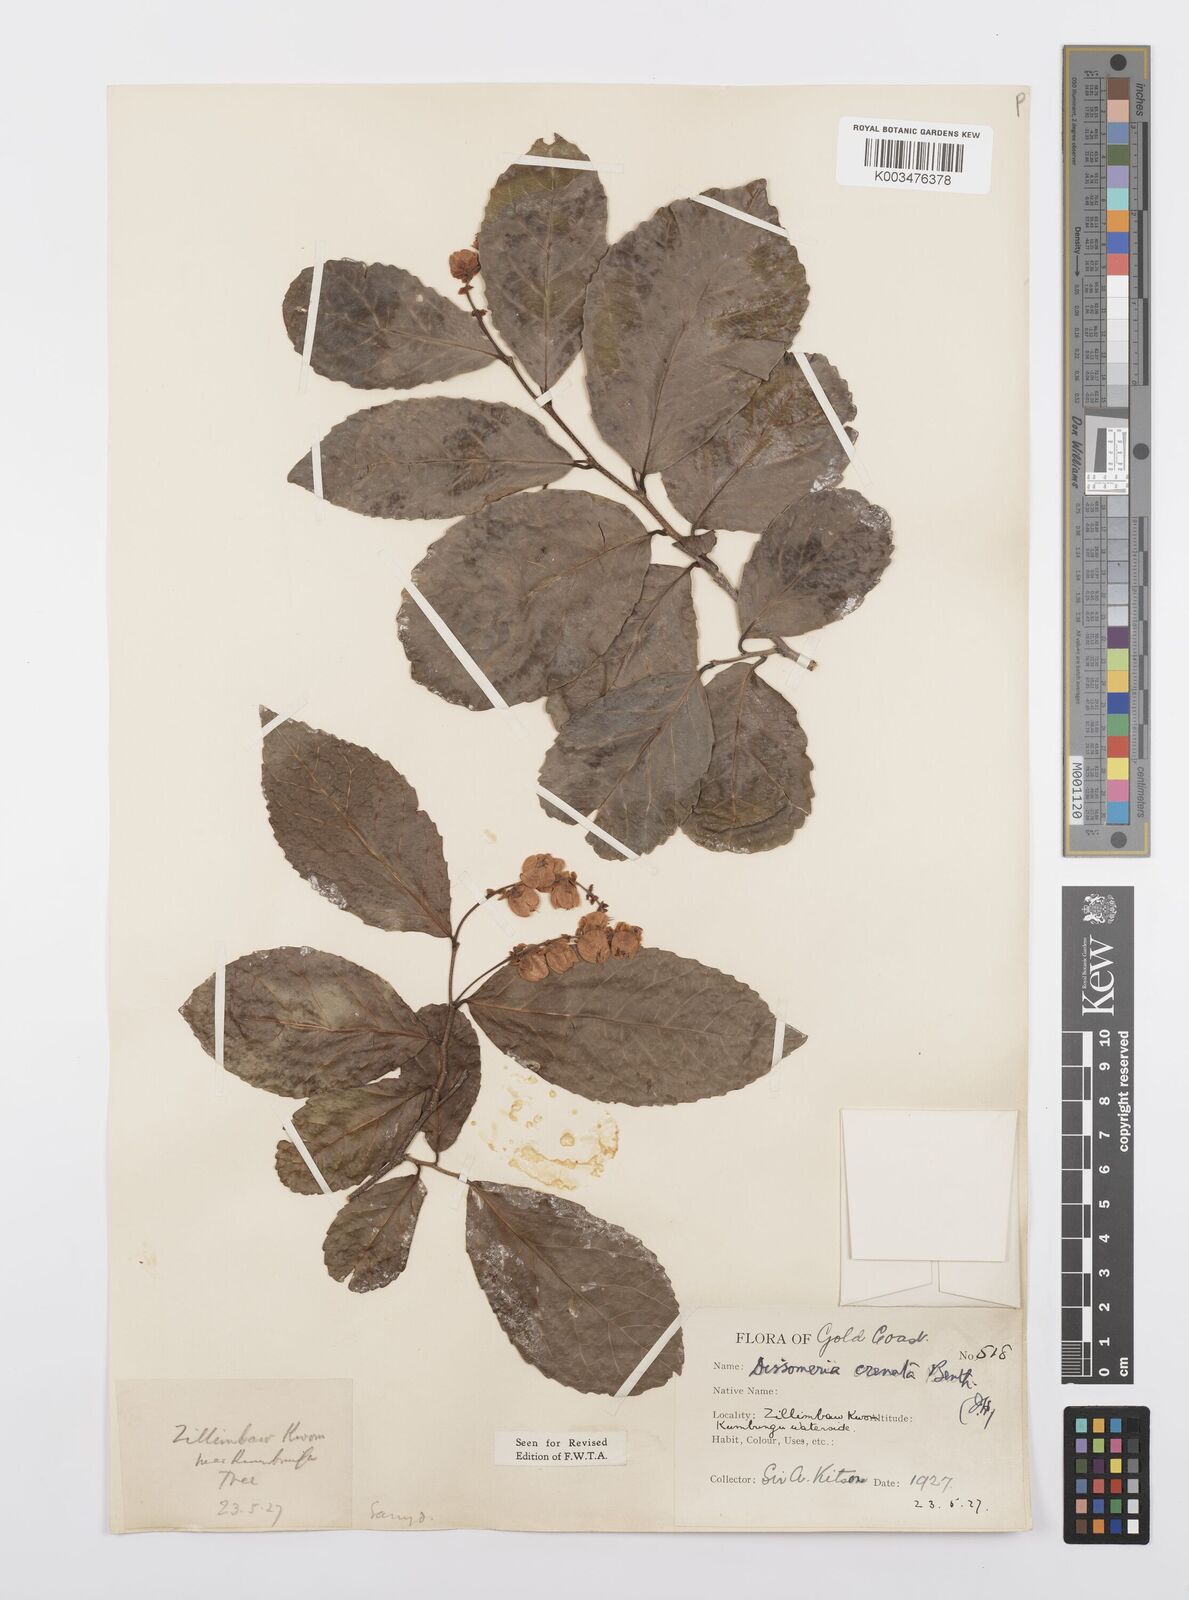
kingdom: Plantae
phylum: Tracheophyta
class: Magnoliopsida
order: Malpighiales
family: Salicaceae
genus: Dissomeria
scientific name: Dissomeria crenata
